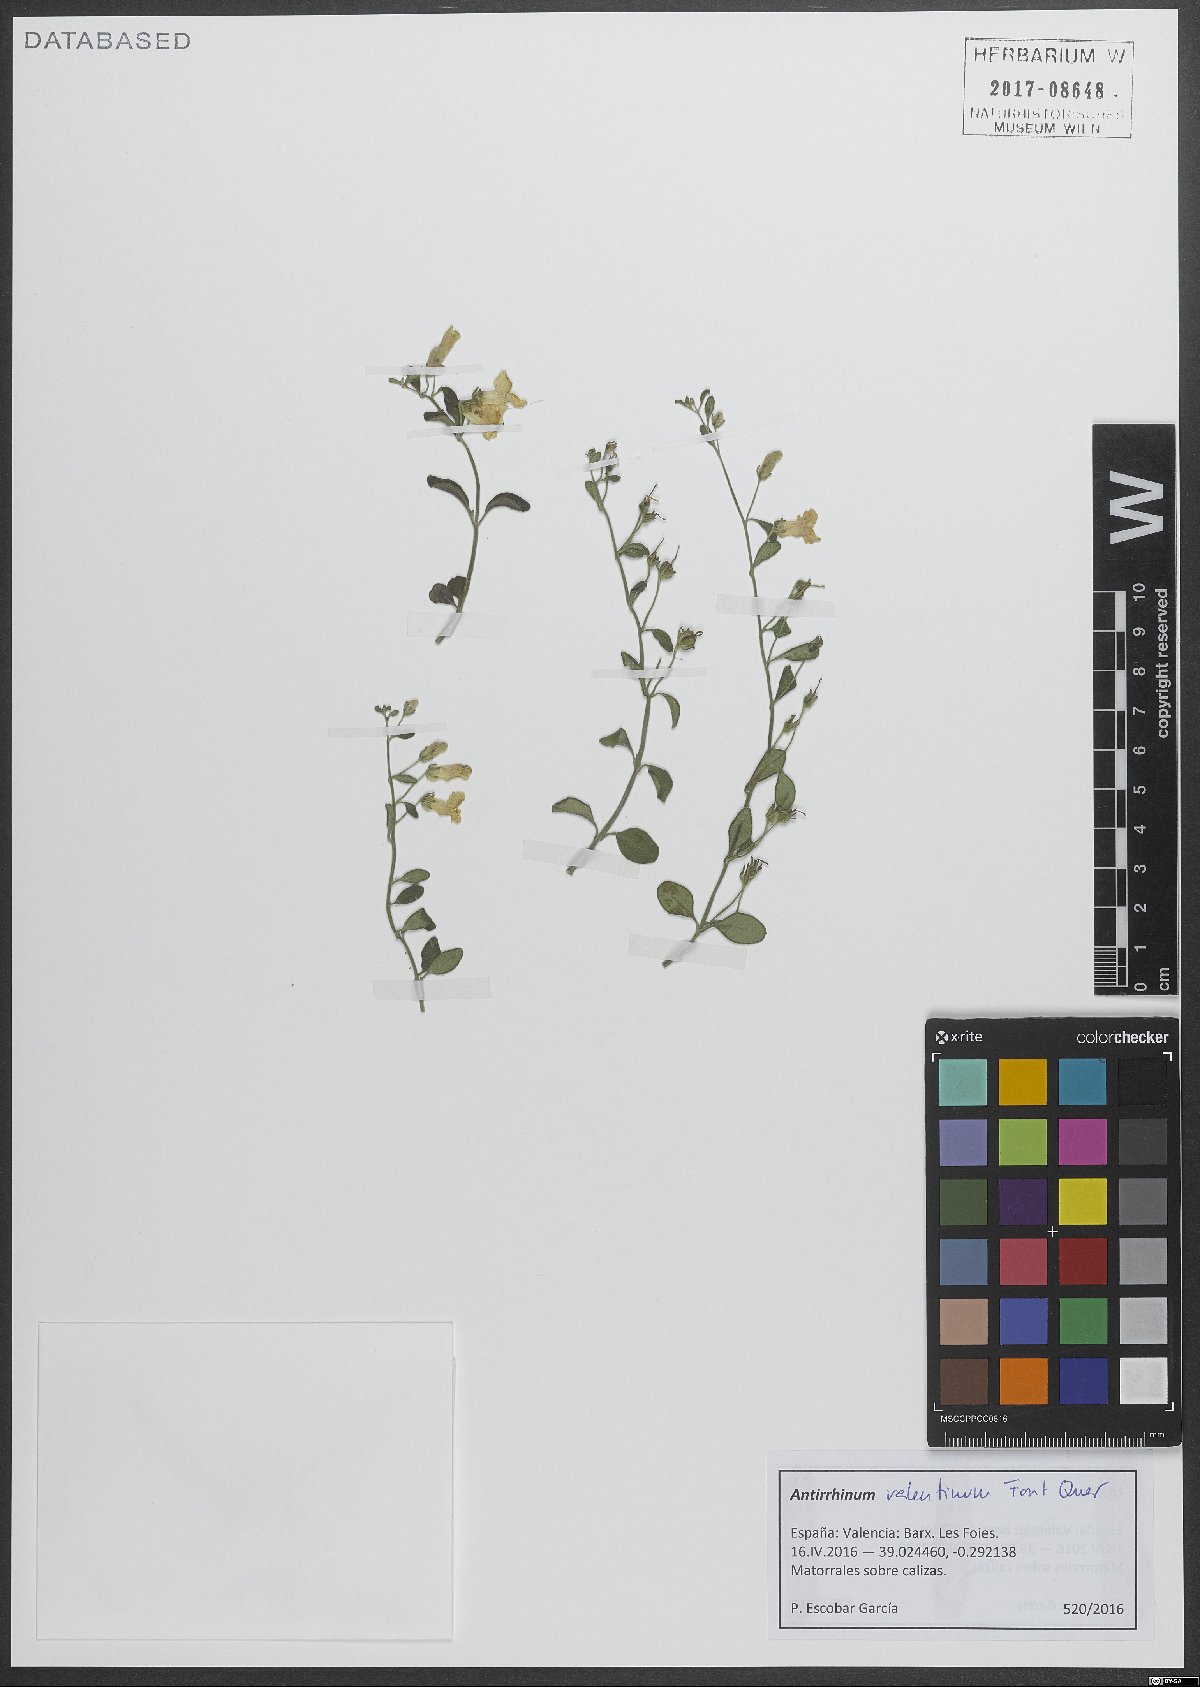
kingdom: Plantae
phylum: Tracheophyta
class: Magnoliopsida
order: Lamiales
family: Plantaginaceae
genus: Antirrhinum
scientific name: Antirrhinum valentinum
